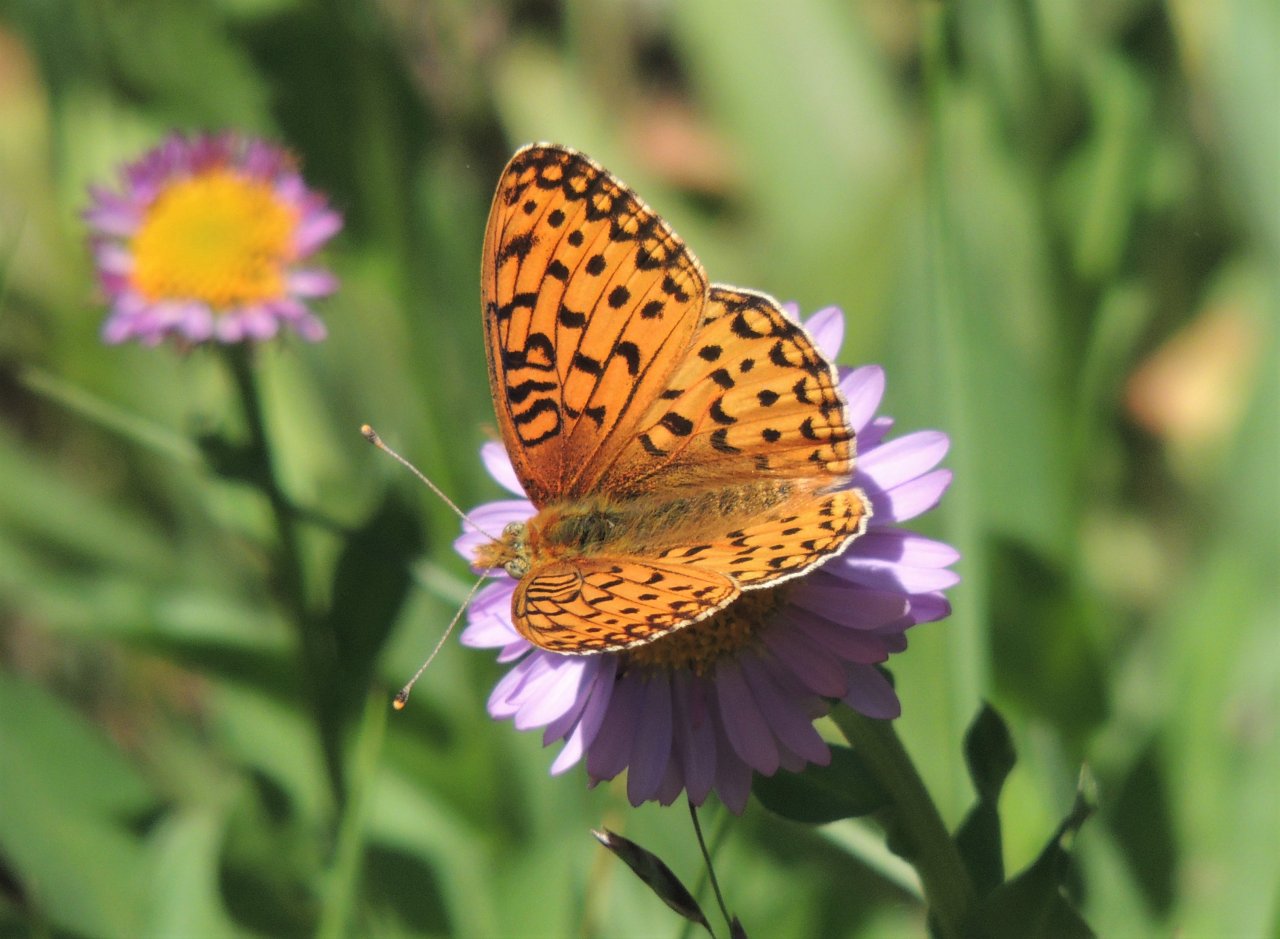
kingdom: Animalia
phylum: Arthropoda
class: Insecta
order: Lepidoptera
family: Nymphalidae
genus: Speyeria
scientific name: Speyeria mormonia
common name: Mormon Fritillary
